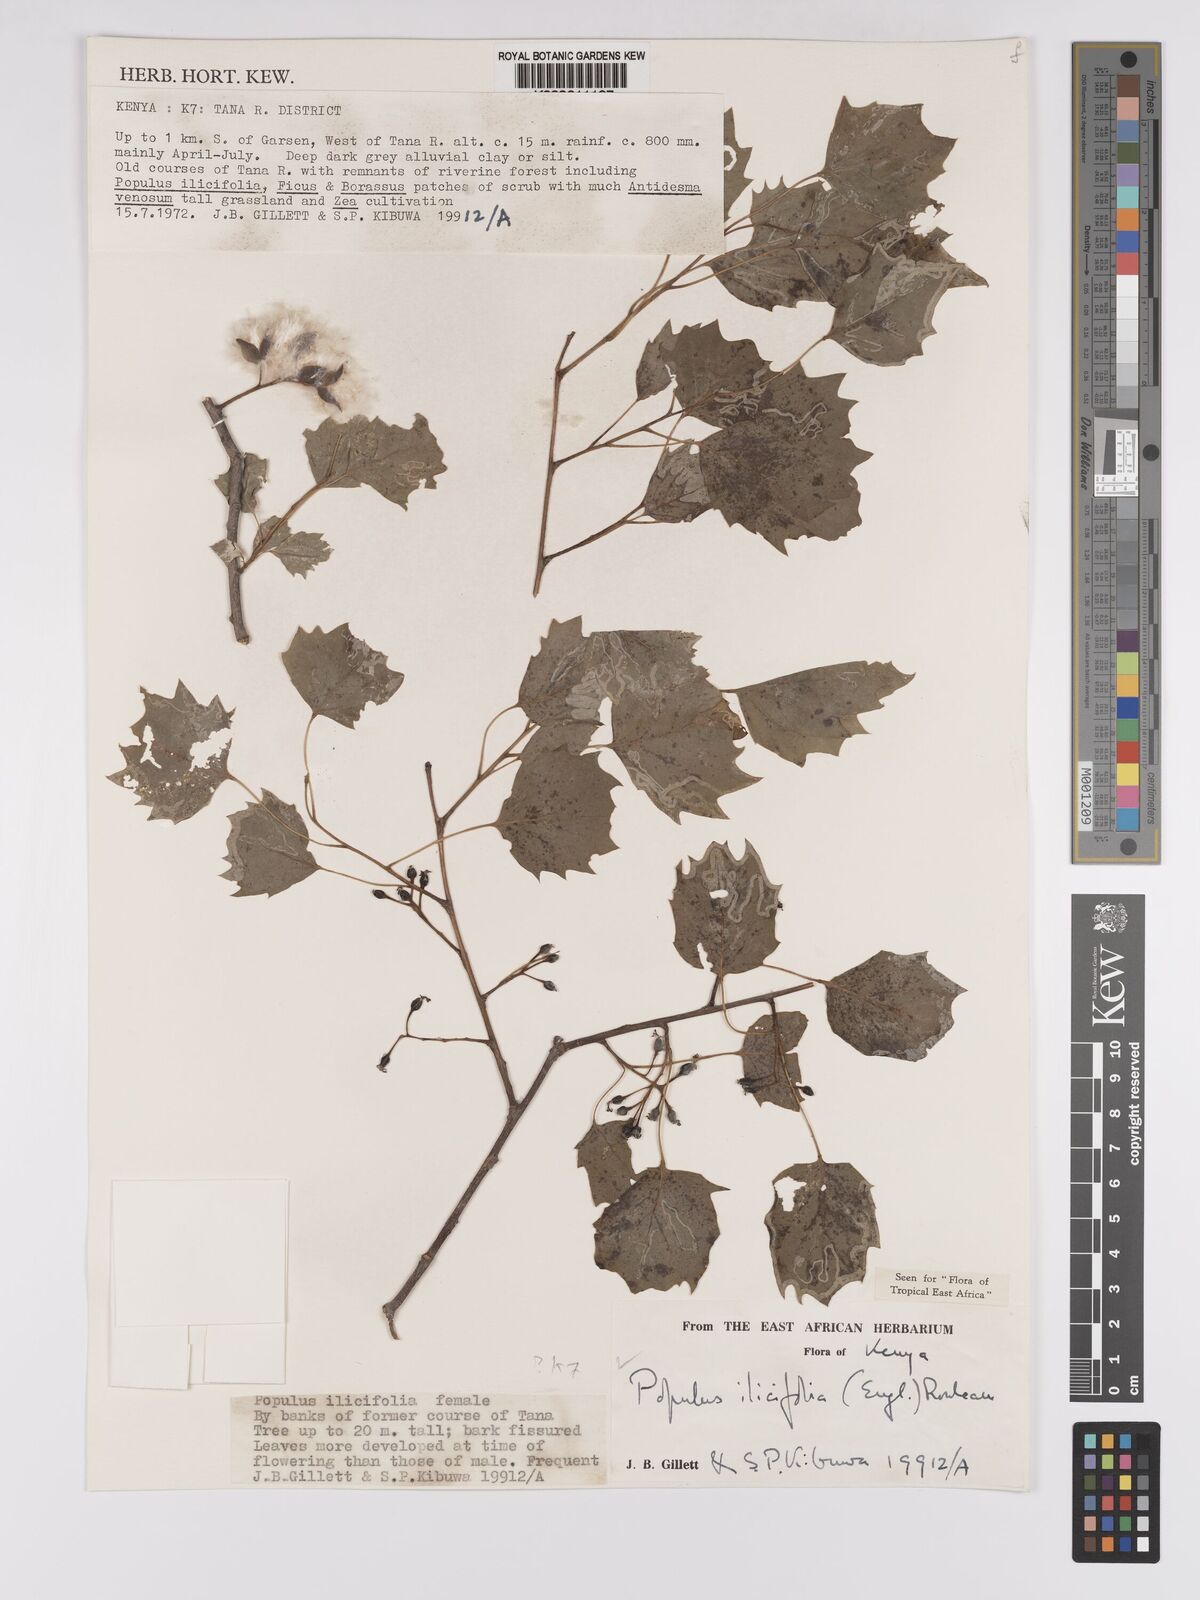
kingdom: Plantae
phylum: Tracheophyta
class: Magnoliopsida
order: Malpighiales
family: Salicaceae
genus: Populus
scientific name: Populus ilicifolia
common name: Tana river poplar
